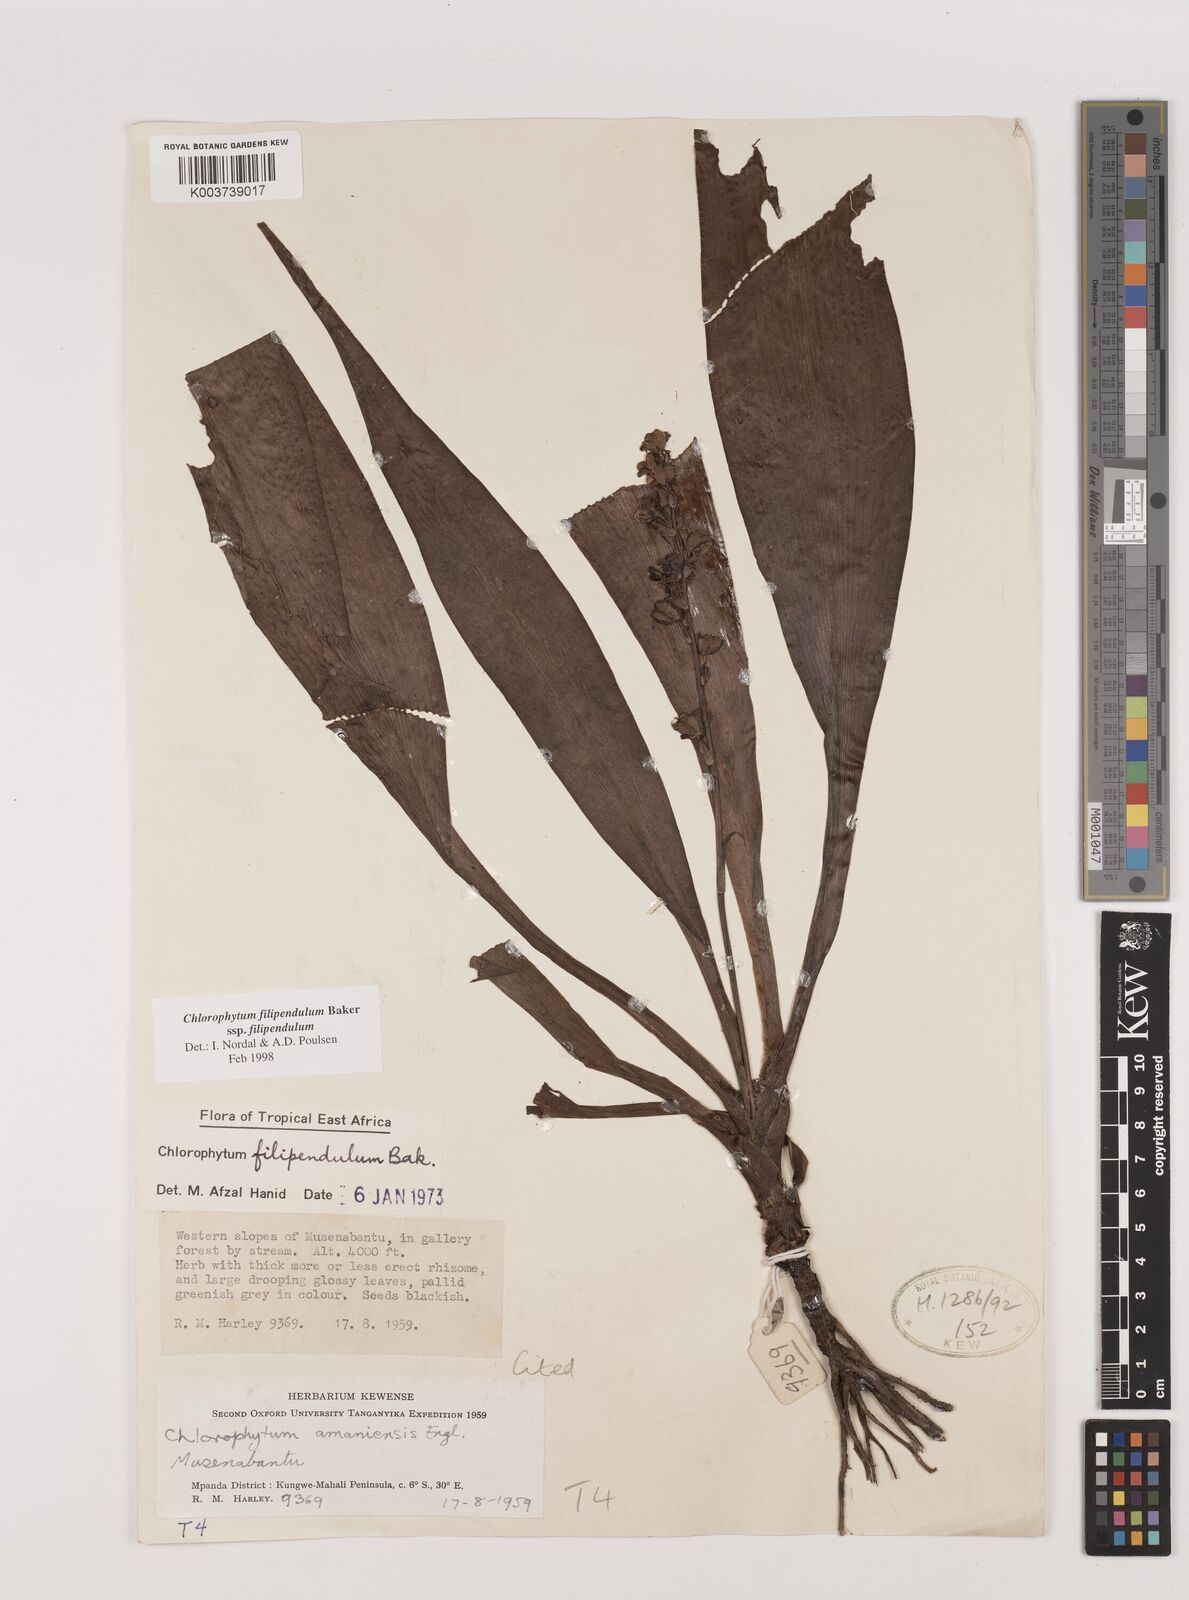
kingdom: Plantae
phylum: Tracheophyta
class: Liliopsida
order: Asparagales
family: Asparagaceae
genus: Chlorophytum
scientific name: Chlorophytum filipendulum
